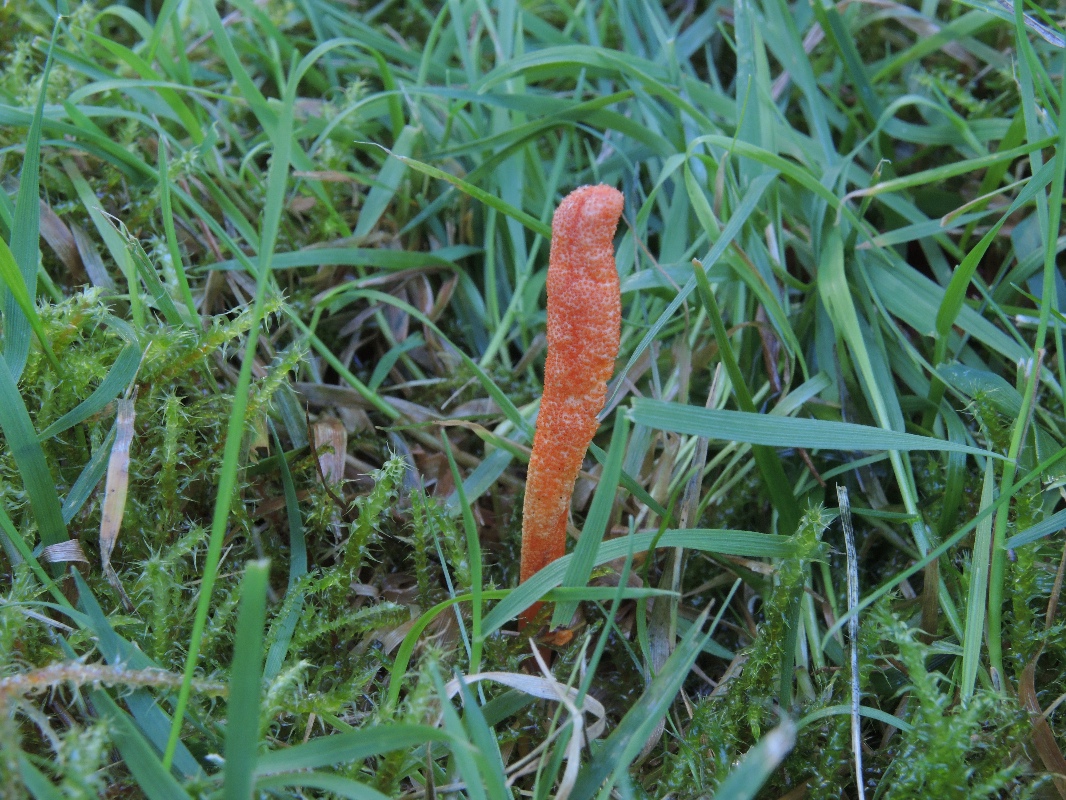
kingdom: Fungi
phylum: Ascomycota
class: Sordariomycetes
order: Hypocreales
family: Cordycipitaceae
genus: Cordyceps
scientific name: Cordyceps militaris
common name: puppe-snyltekølle
